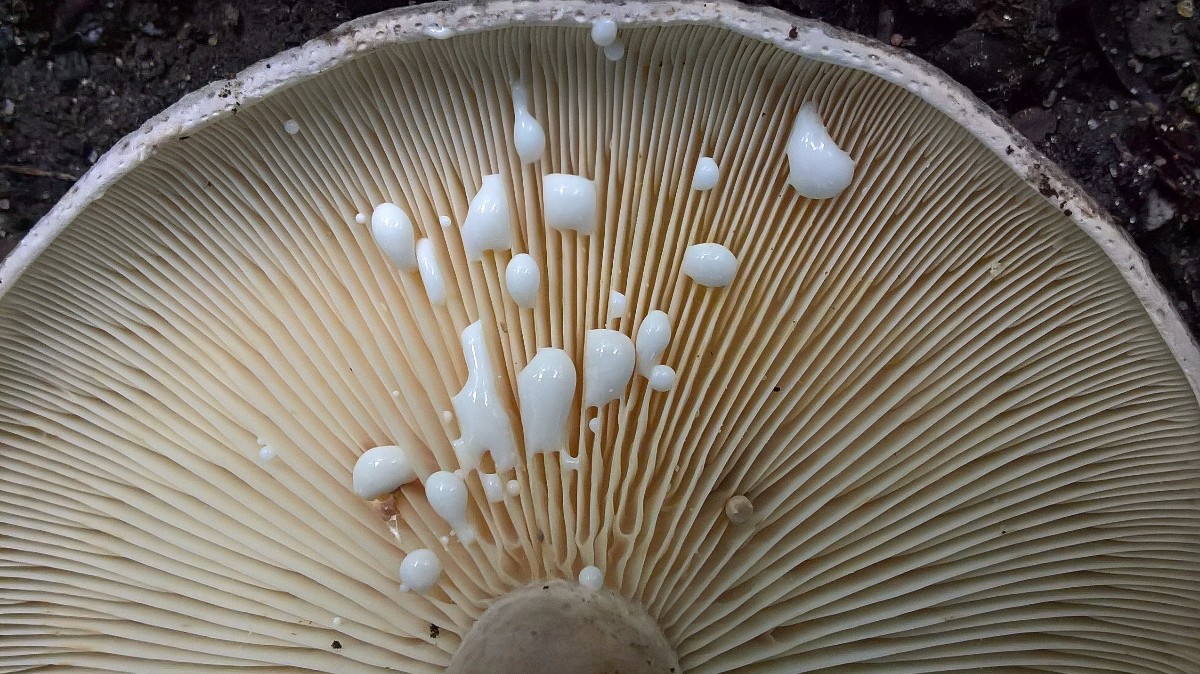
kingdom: Fungi
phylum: Basidiomycota
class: Agaricomycetes
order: Russulales
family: Russulaceae
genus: Lactarius
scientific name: Lactarius fluens
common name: lysrandet mælkehat
